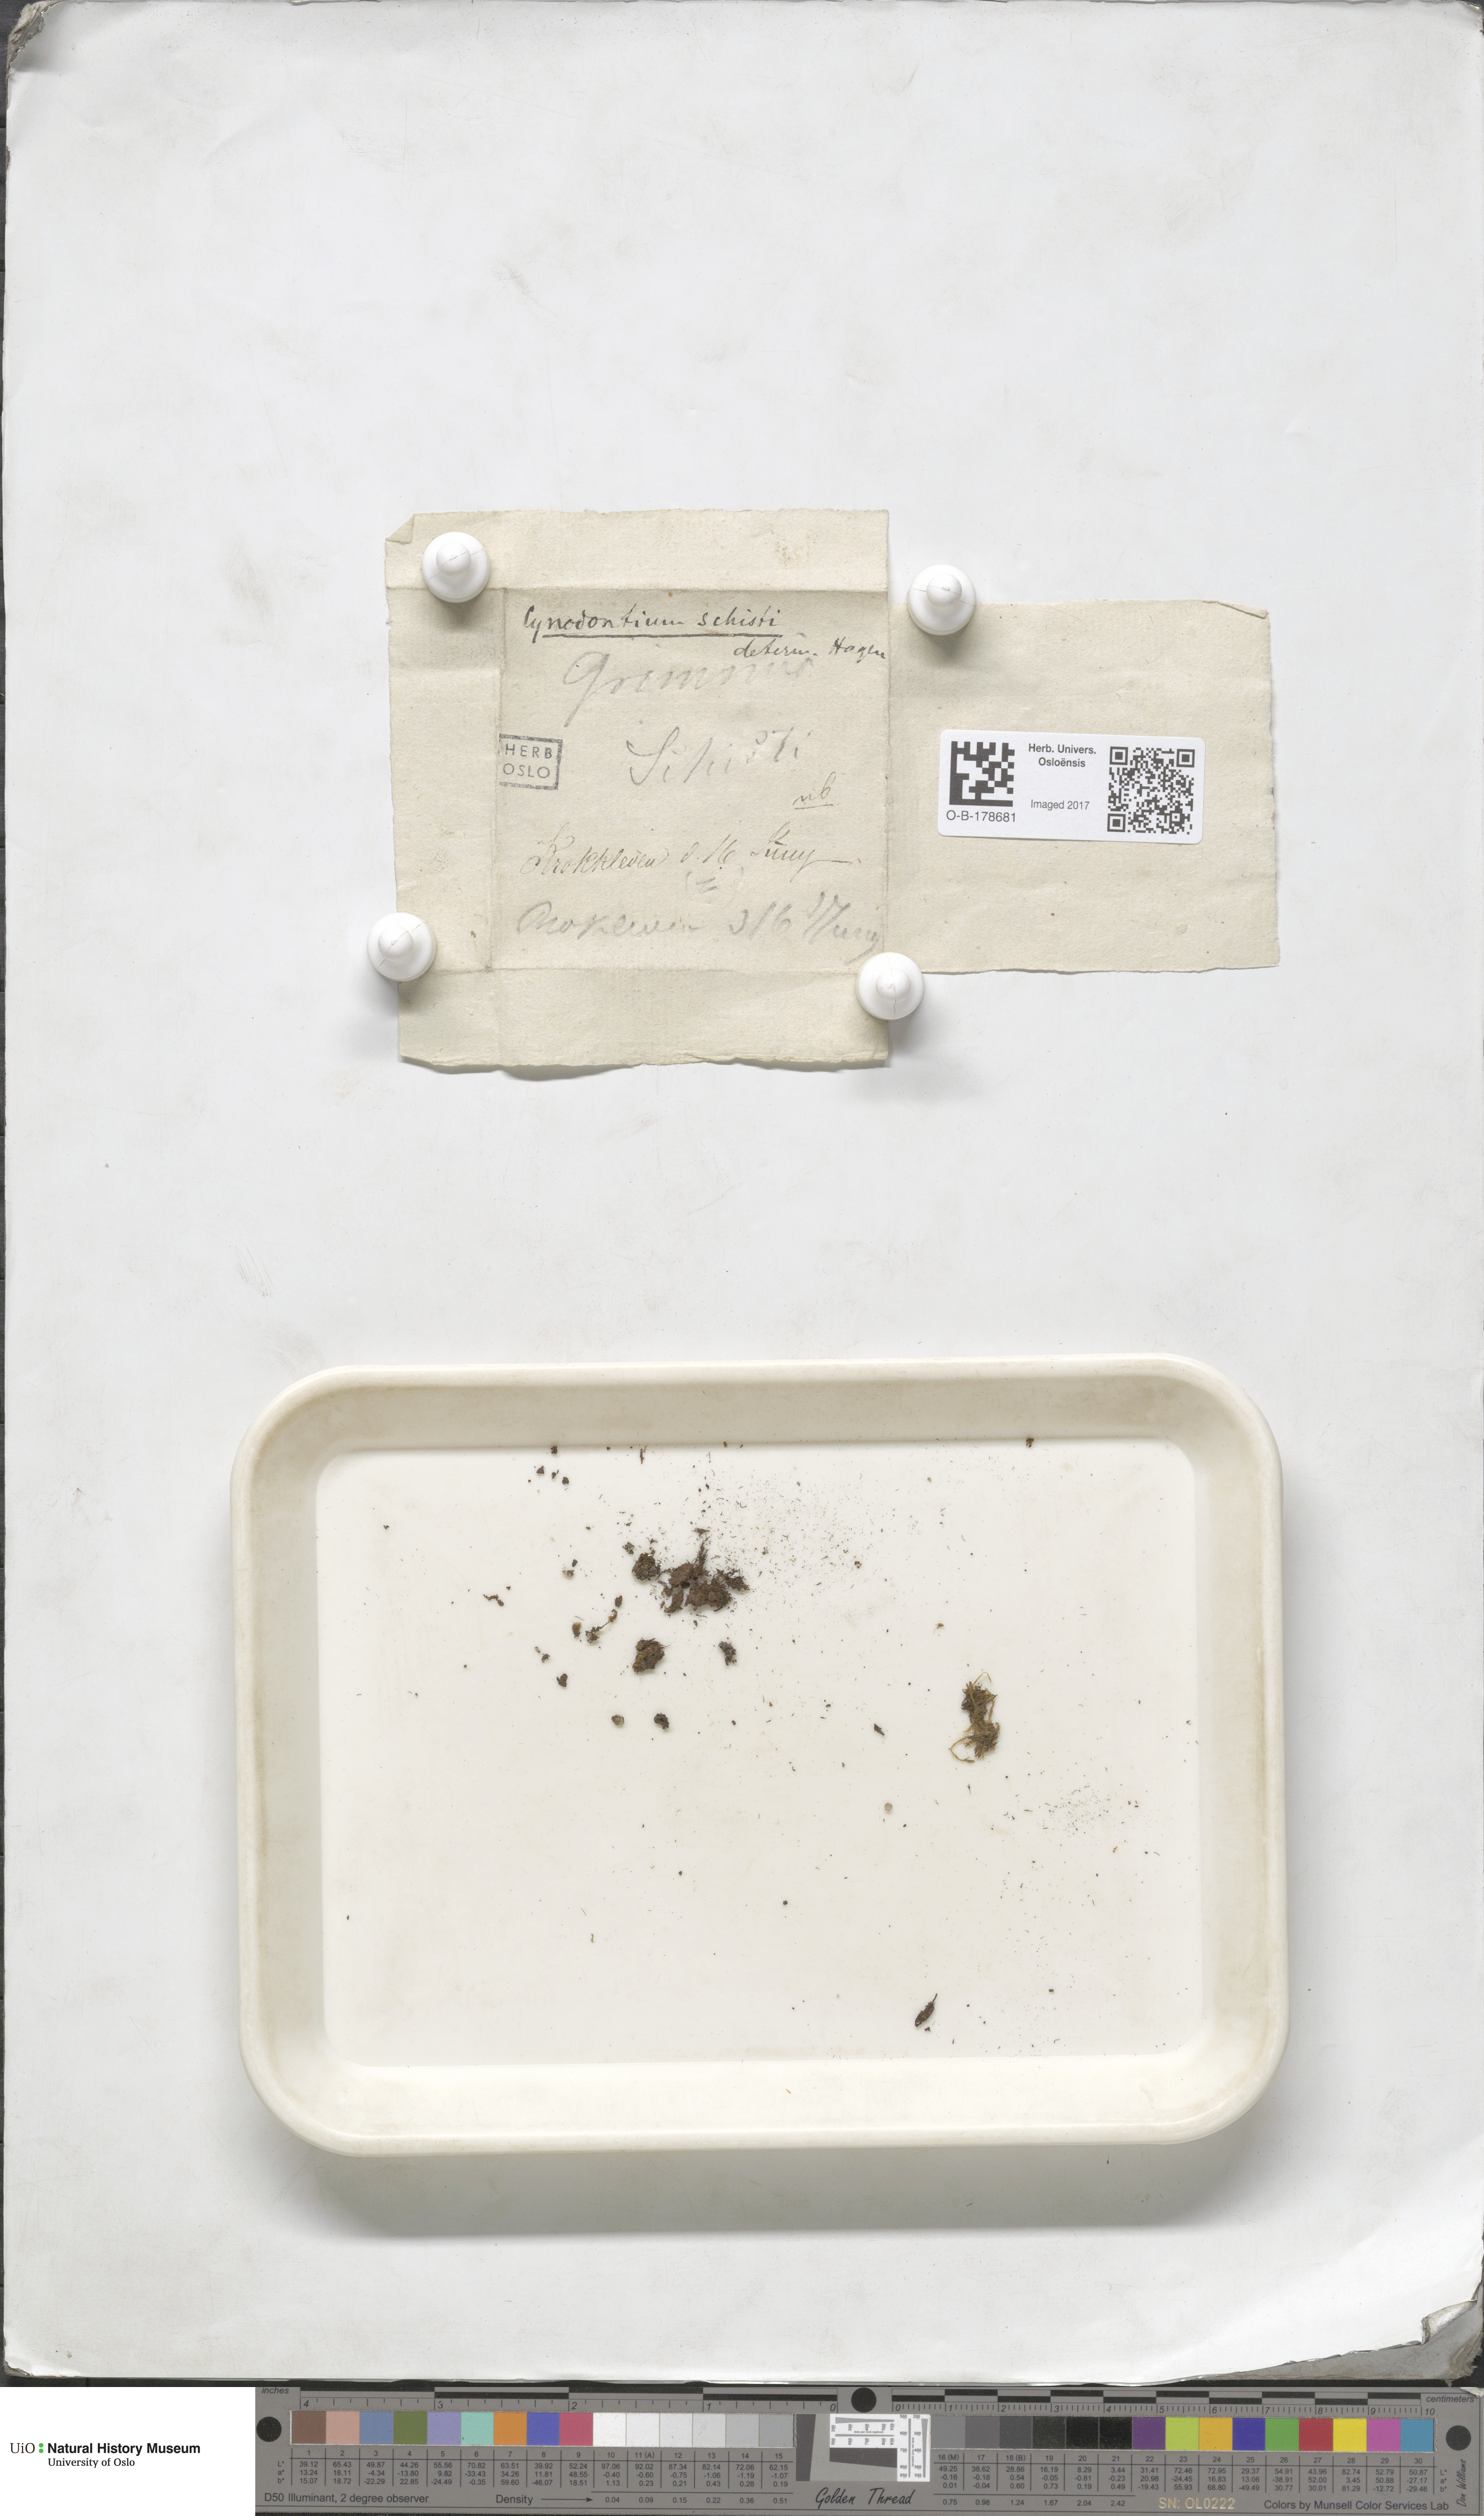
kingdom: Plantae
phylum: Bryophyta
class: Bryopsida
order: Dicranales
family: Rhabdoweisiaceae
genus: Cnestrum
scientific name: Cnestrum schisti
